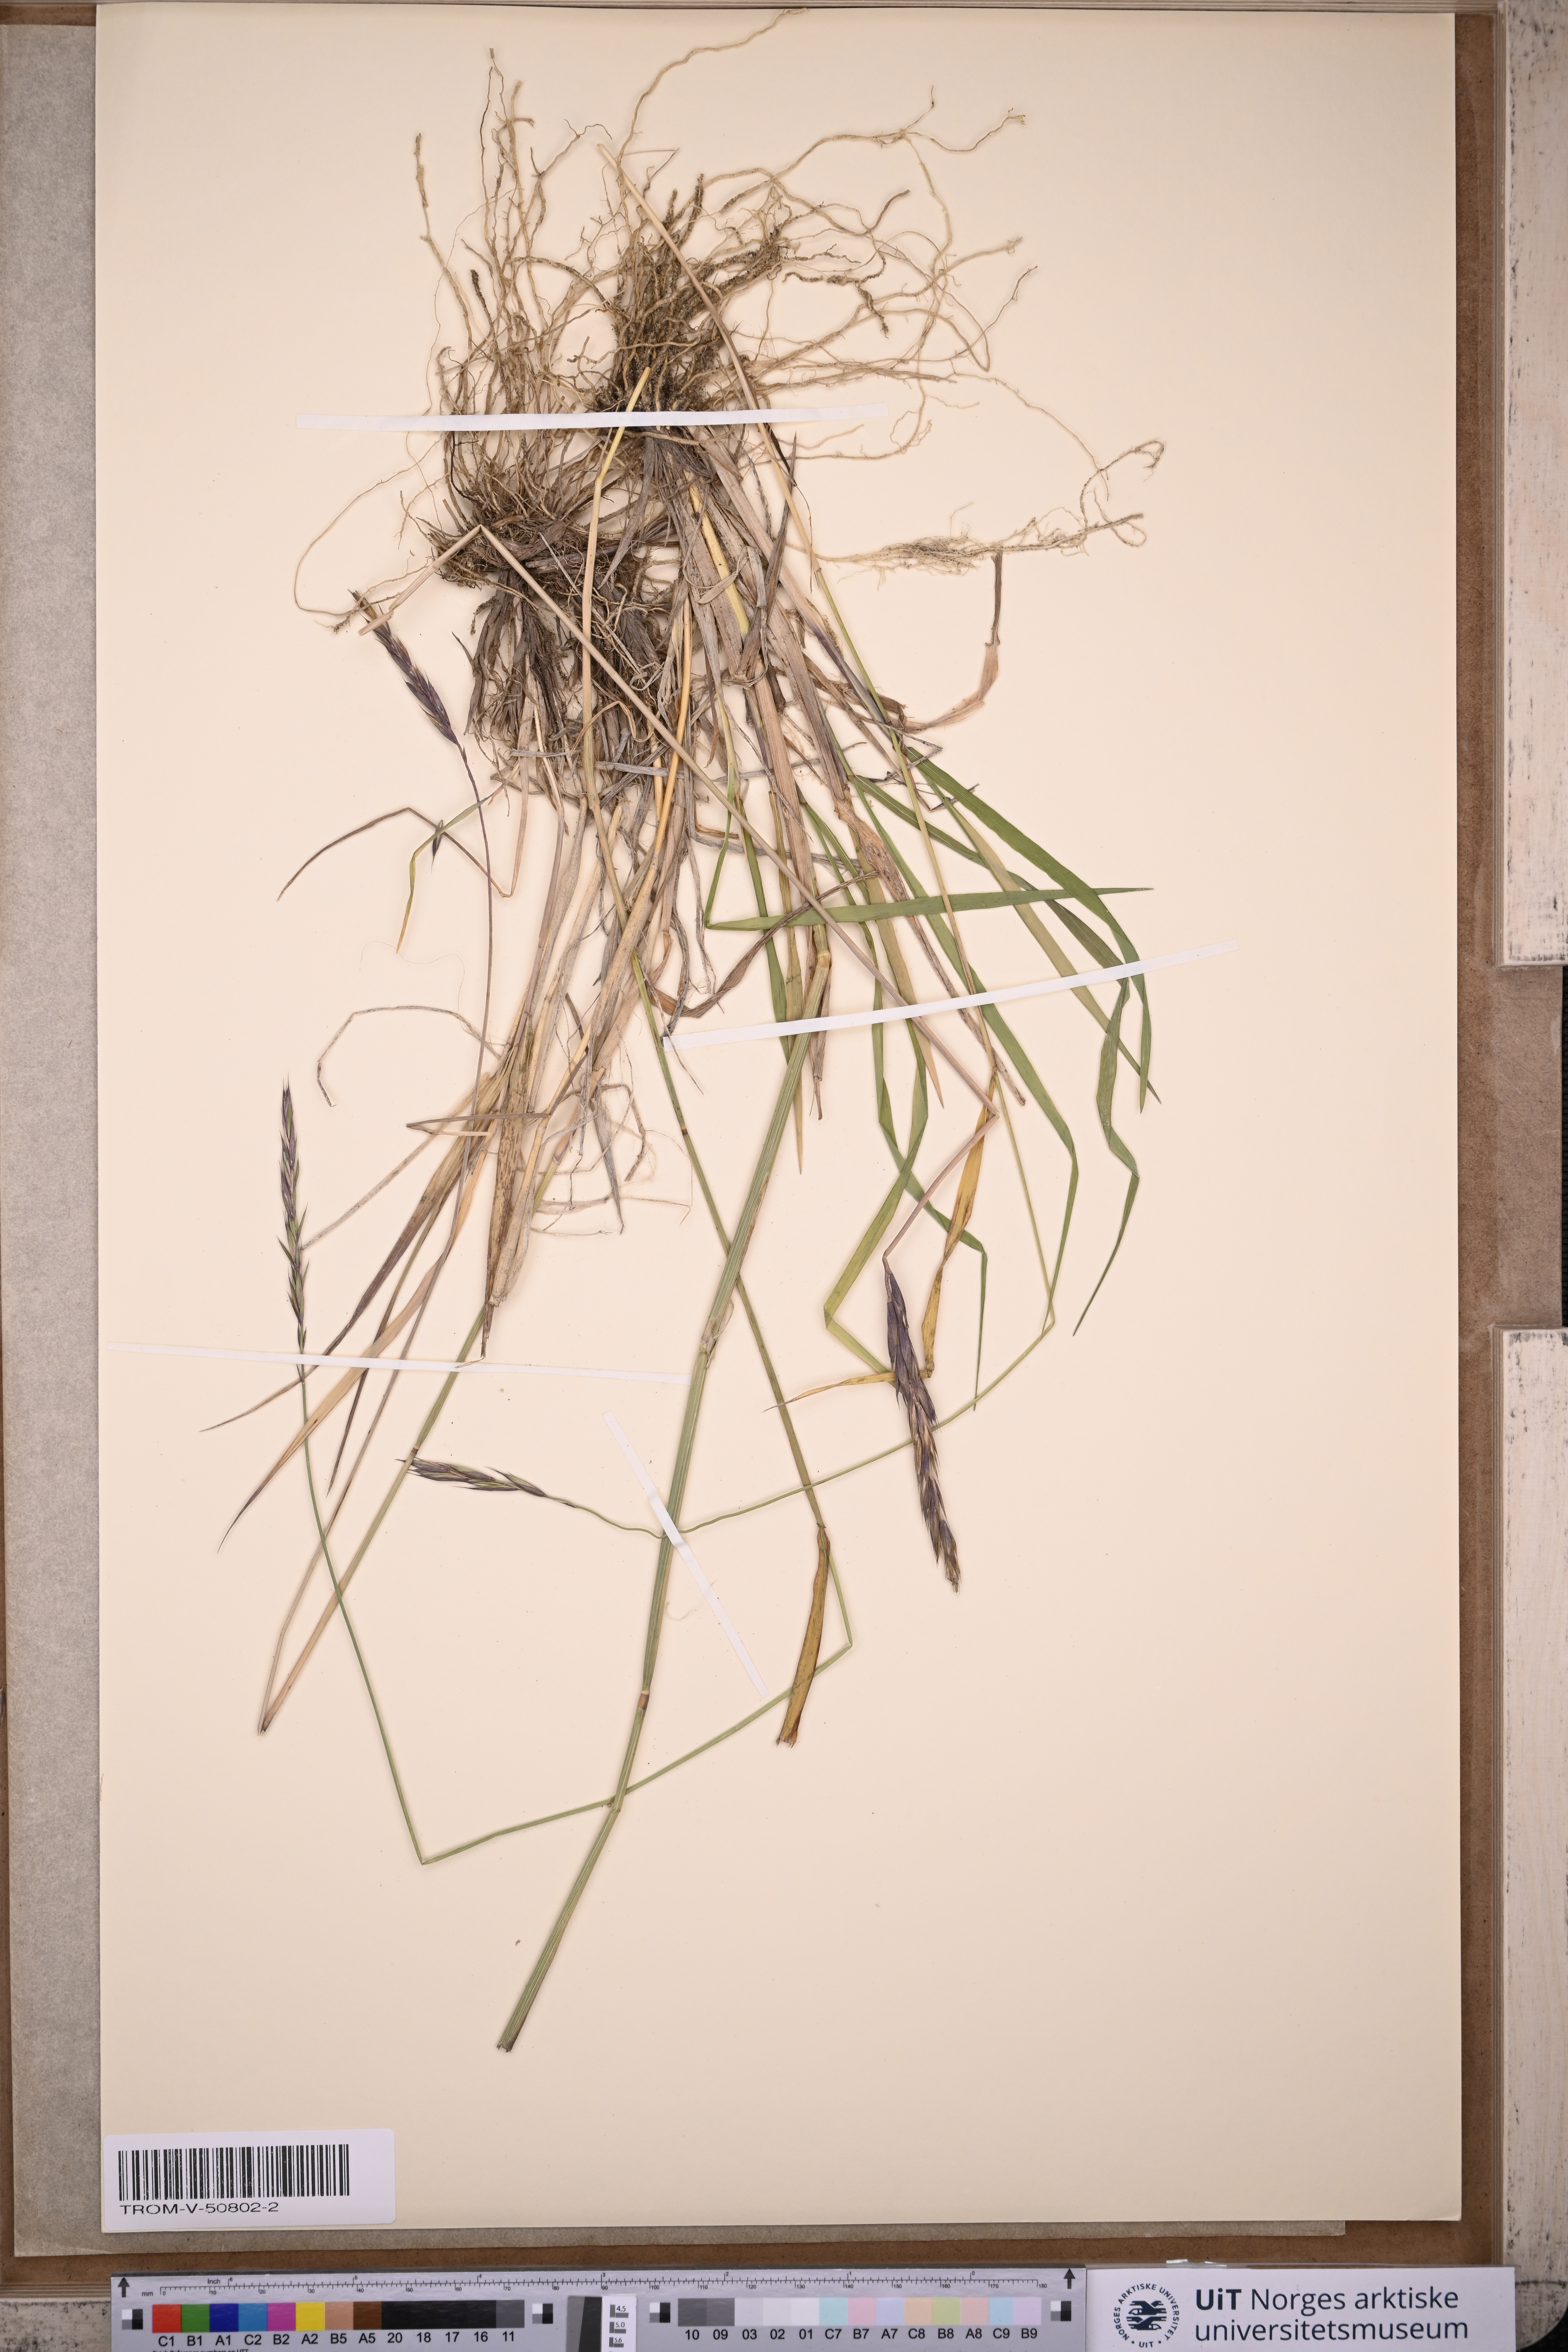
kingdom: Plantae
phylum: Tracheophyta
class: Liliopsida
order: Poales
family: Poaceae
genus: Elymus
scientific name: Elymus mutabilis
